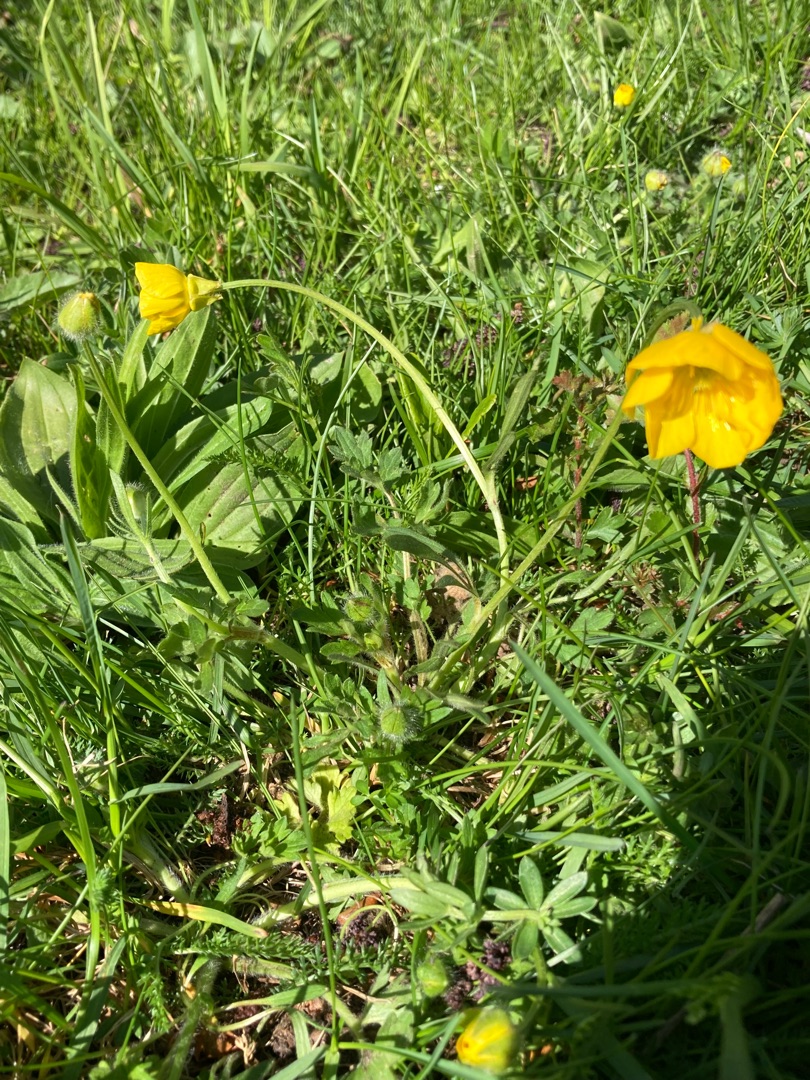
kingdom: Plantae
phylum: Tracheophyta
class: Magnoliopsida
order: Ranunculales
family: Ranunculaceae
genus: Ranunculus
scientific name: Ranunculus bulbosus
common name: Knold-ranunkel
